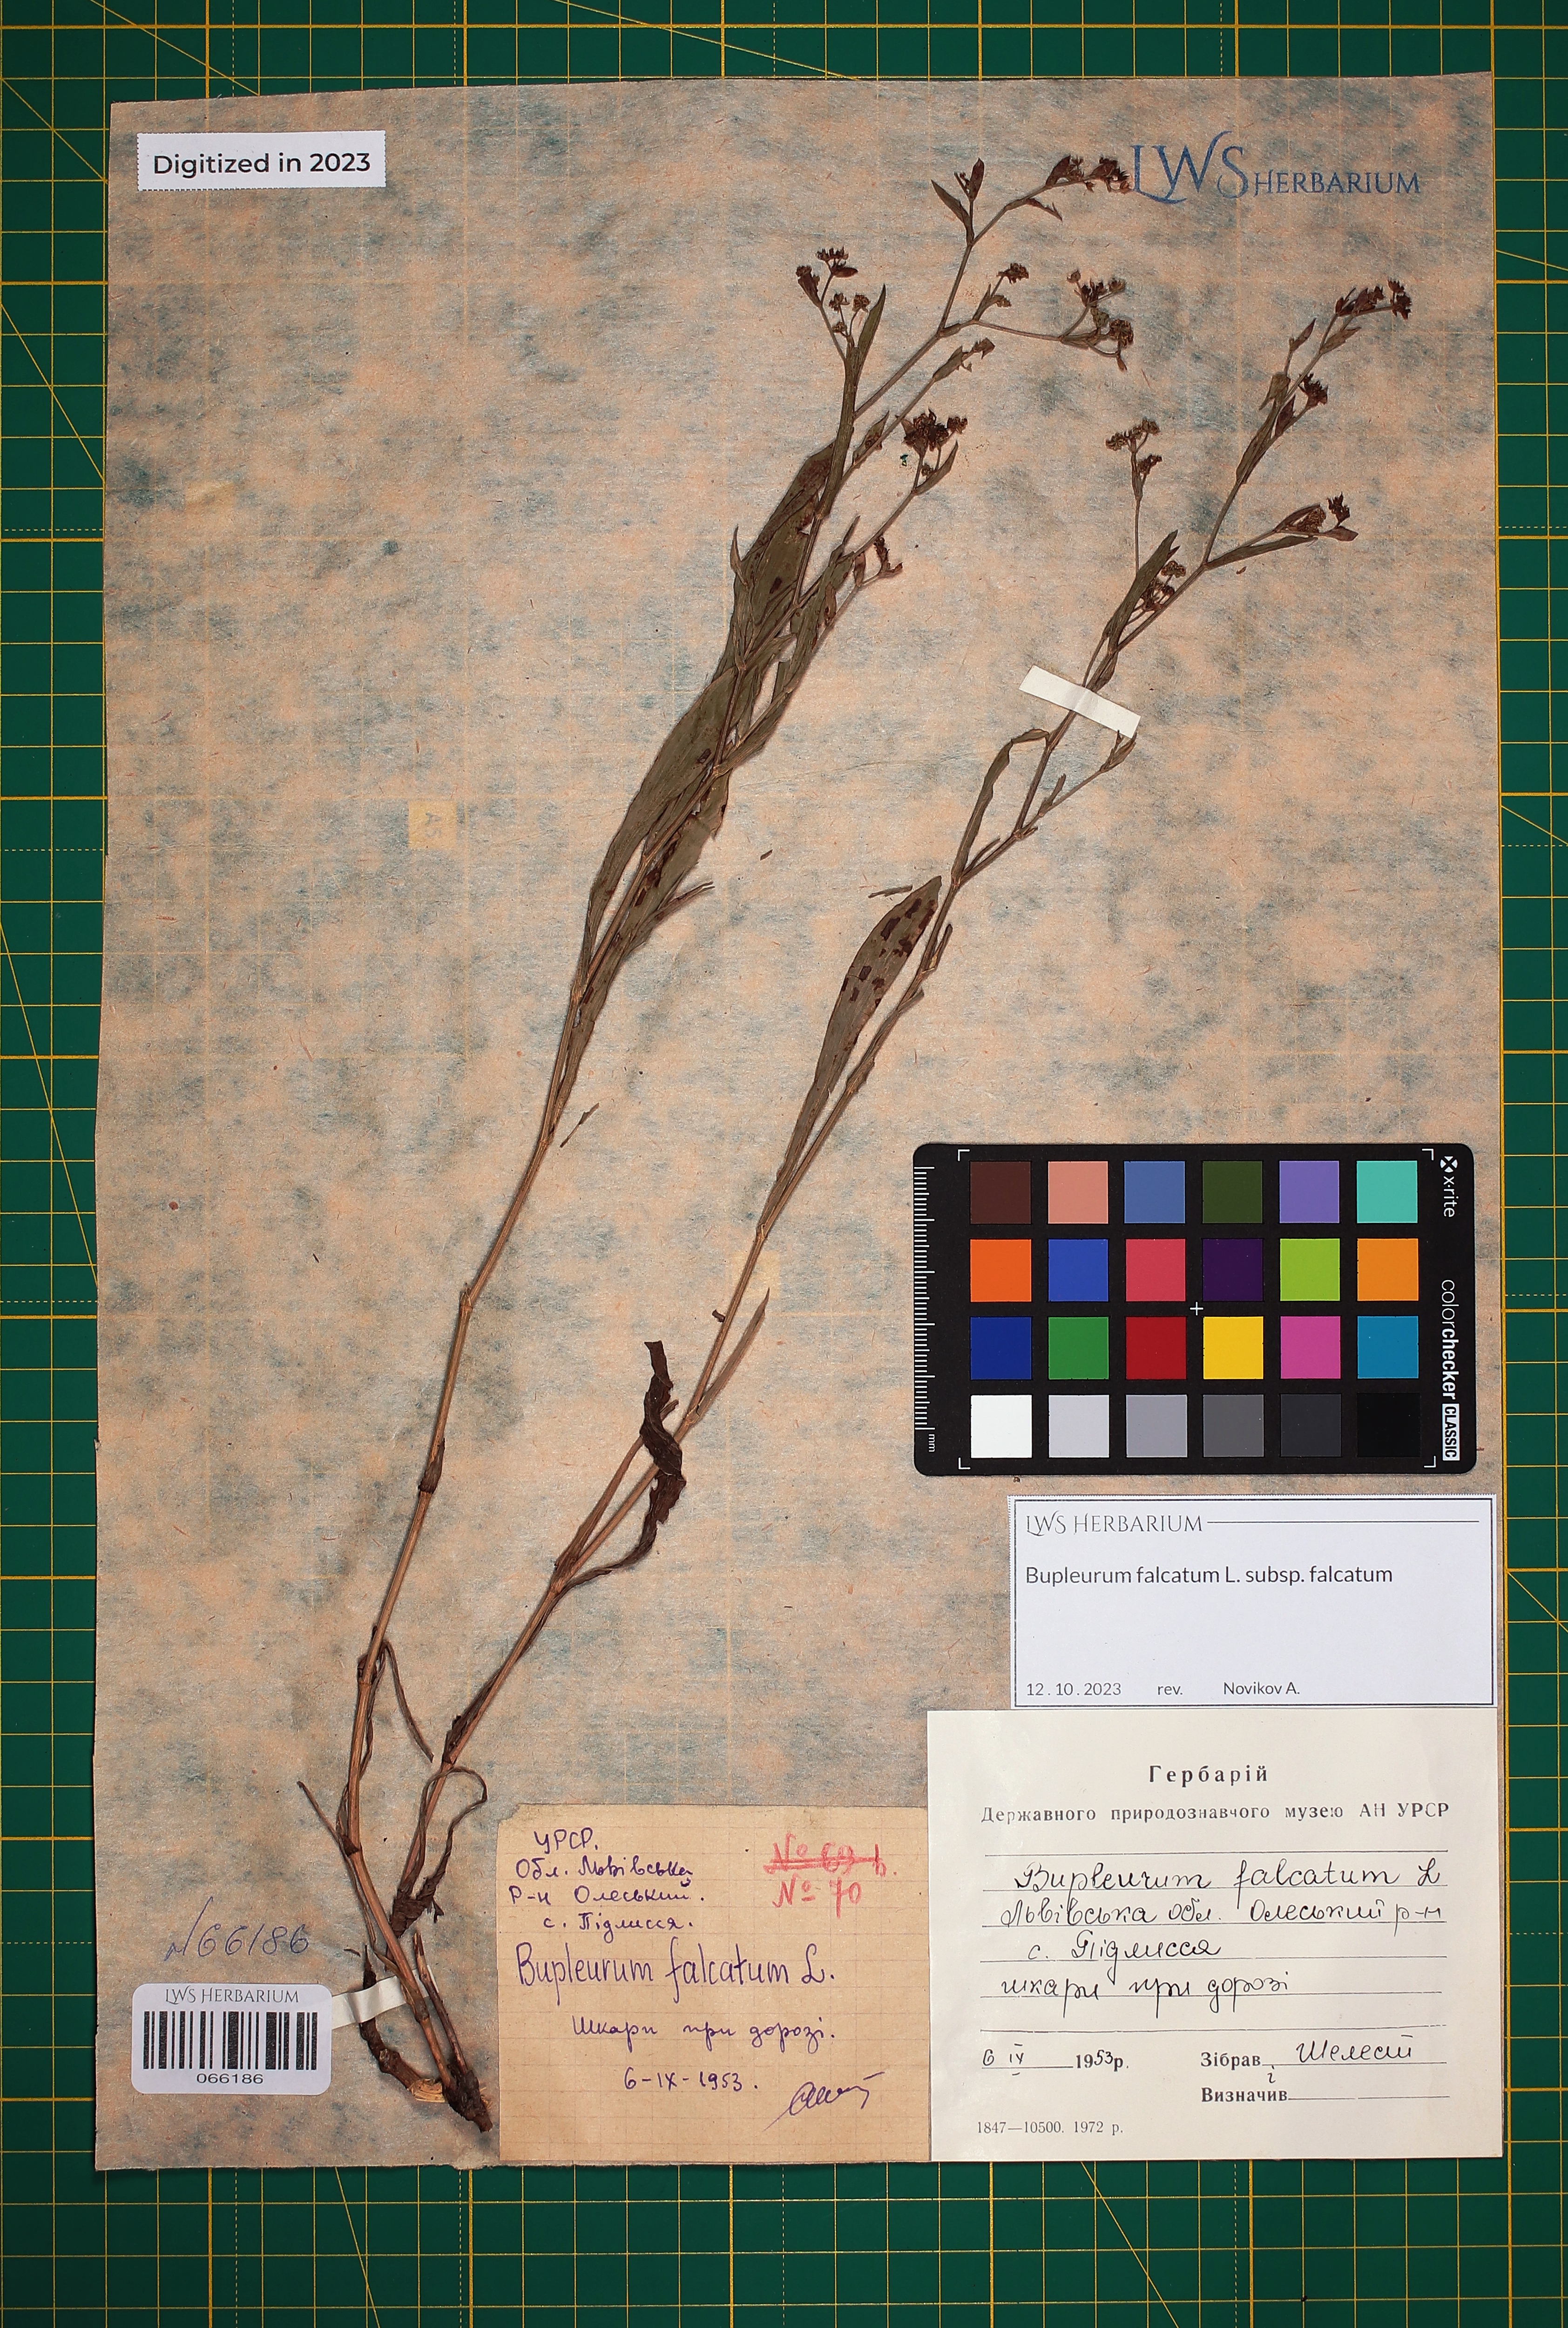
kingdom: Plantae
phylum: Tracheophyta
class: Magnoliopsida
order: Apiales
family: Apiaceae
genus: Bupleurum
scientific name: Bupleurum falcatum
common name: Sickle-leaved hare's-ear
